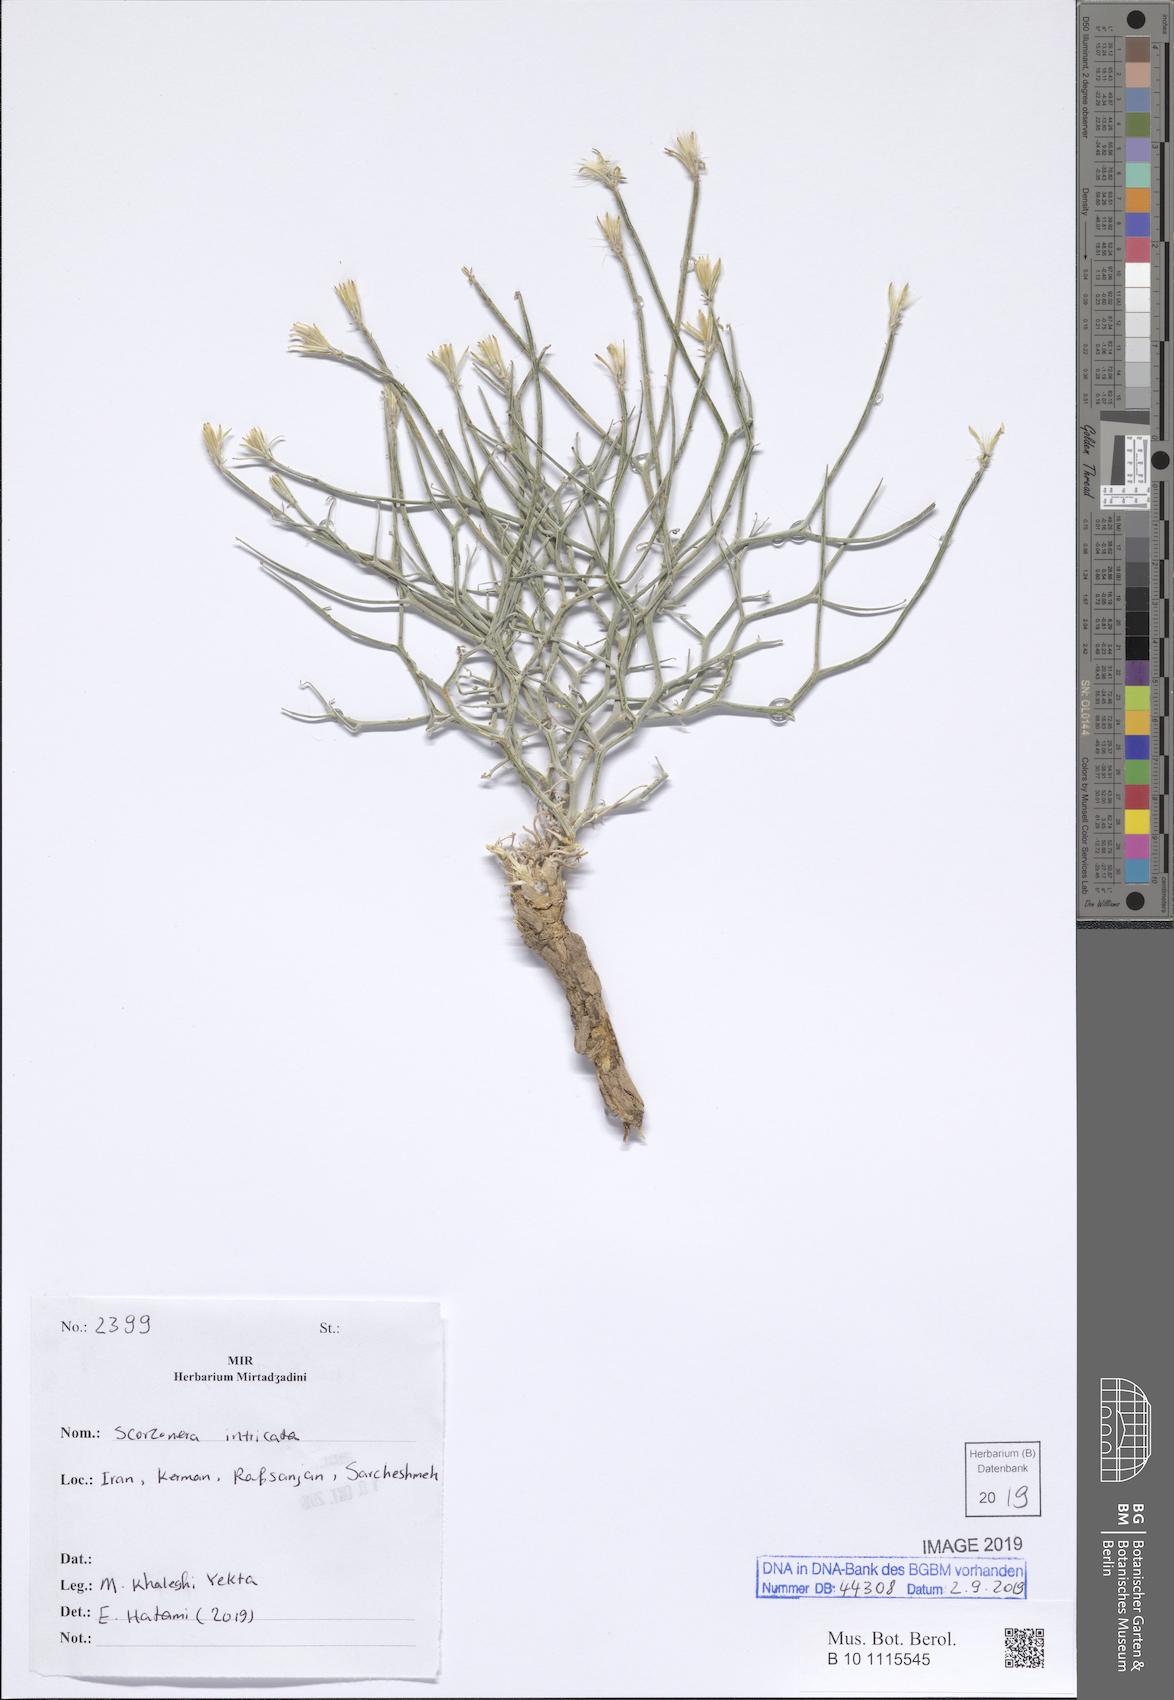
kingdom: Plantae
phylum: Tracheophyta
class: Magnoliopsida
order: Asterales
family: Asteraceae
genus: Ramaliella
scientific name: Ramaliella intricata
